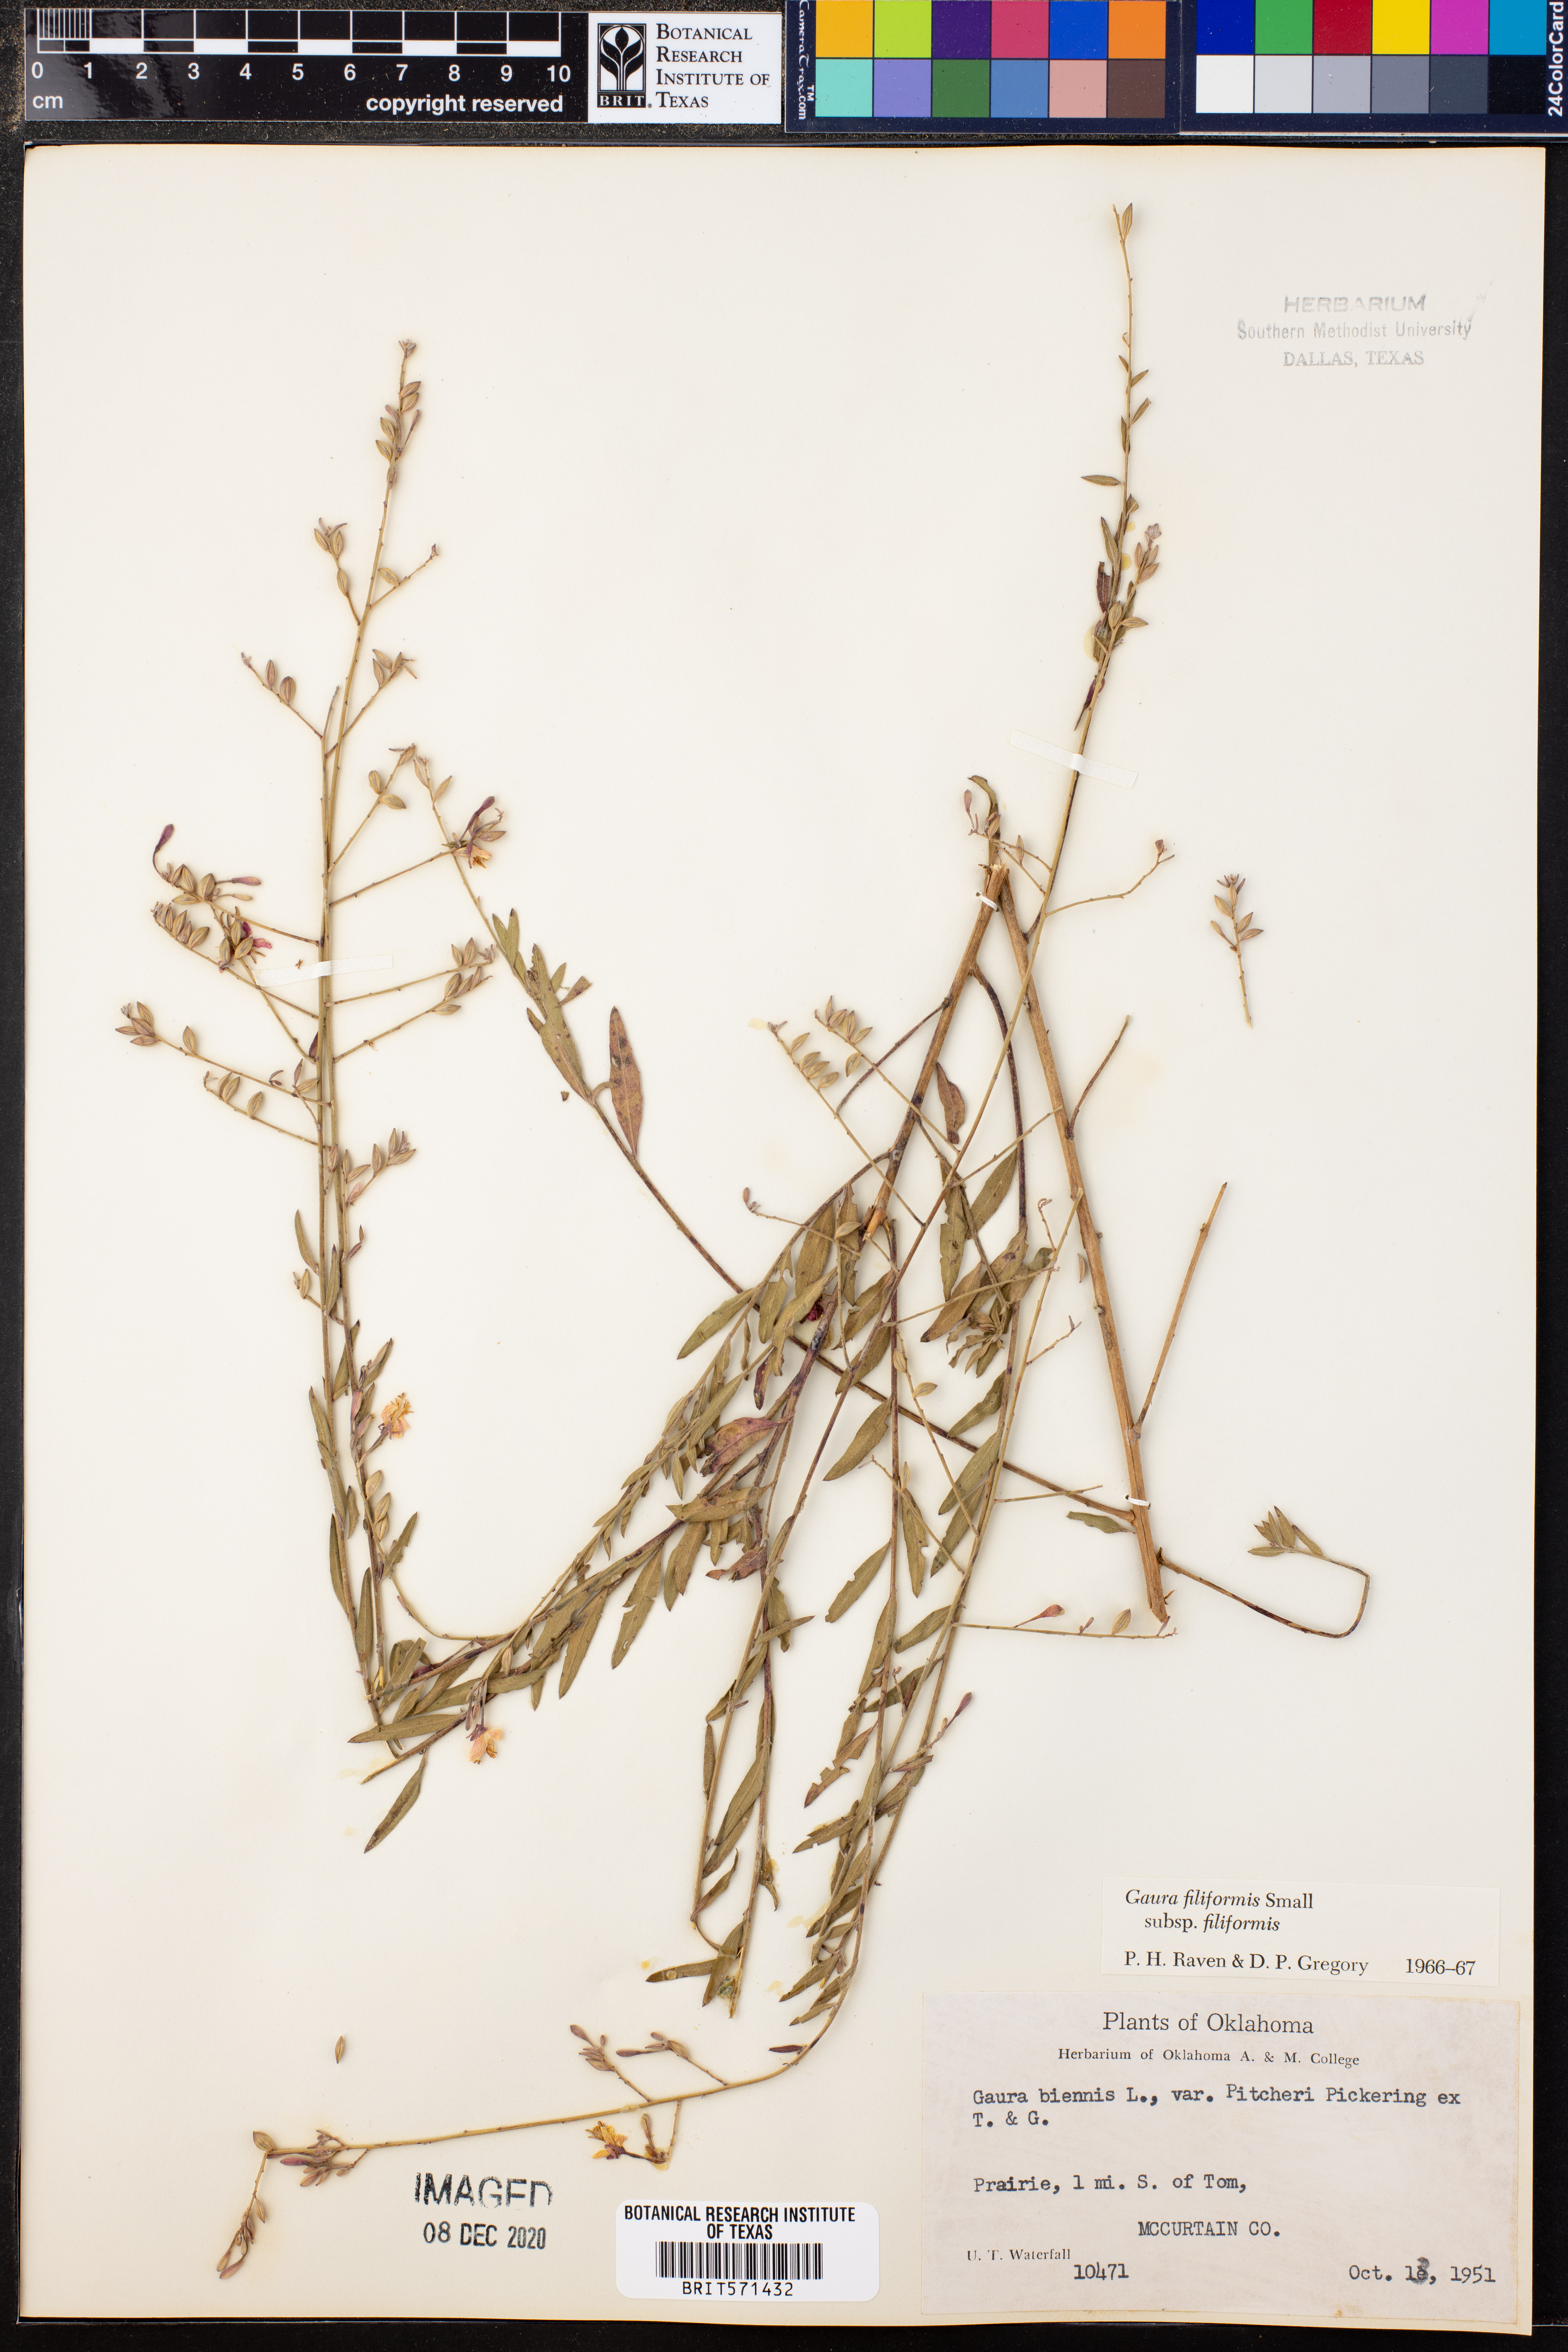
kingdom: Plantae
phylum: Tracheophyta
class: Magnoliopsida
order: Myrtales
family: Onagraceae
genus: Oenothera
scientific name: Oenothera filiformis
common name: Longflower beeblossom
